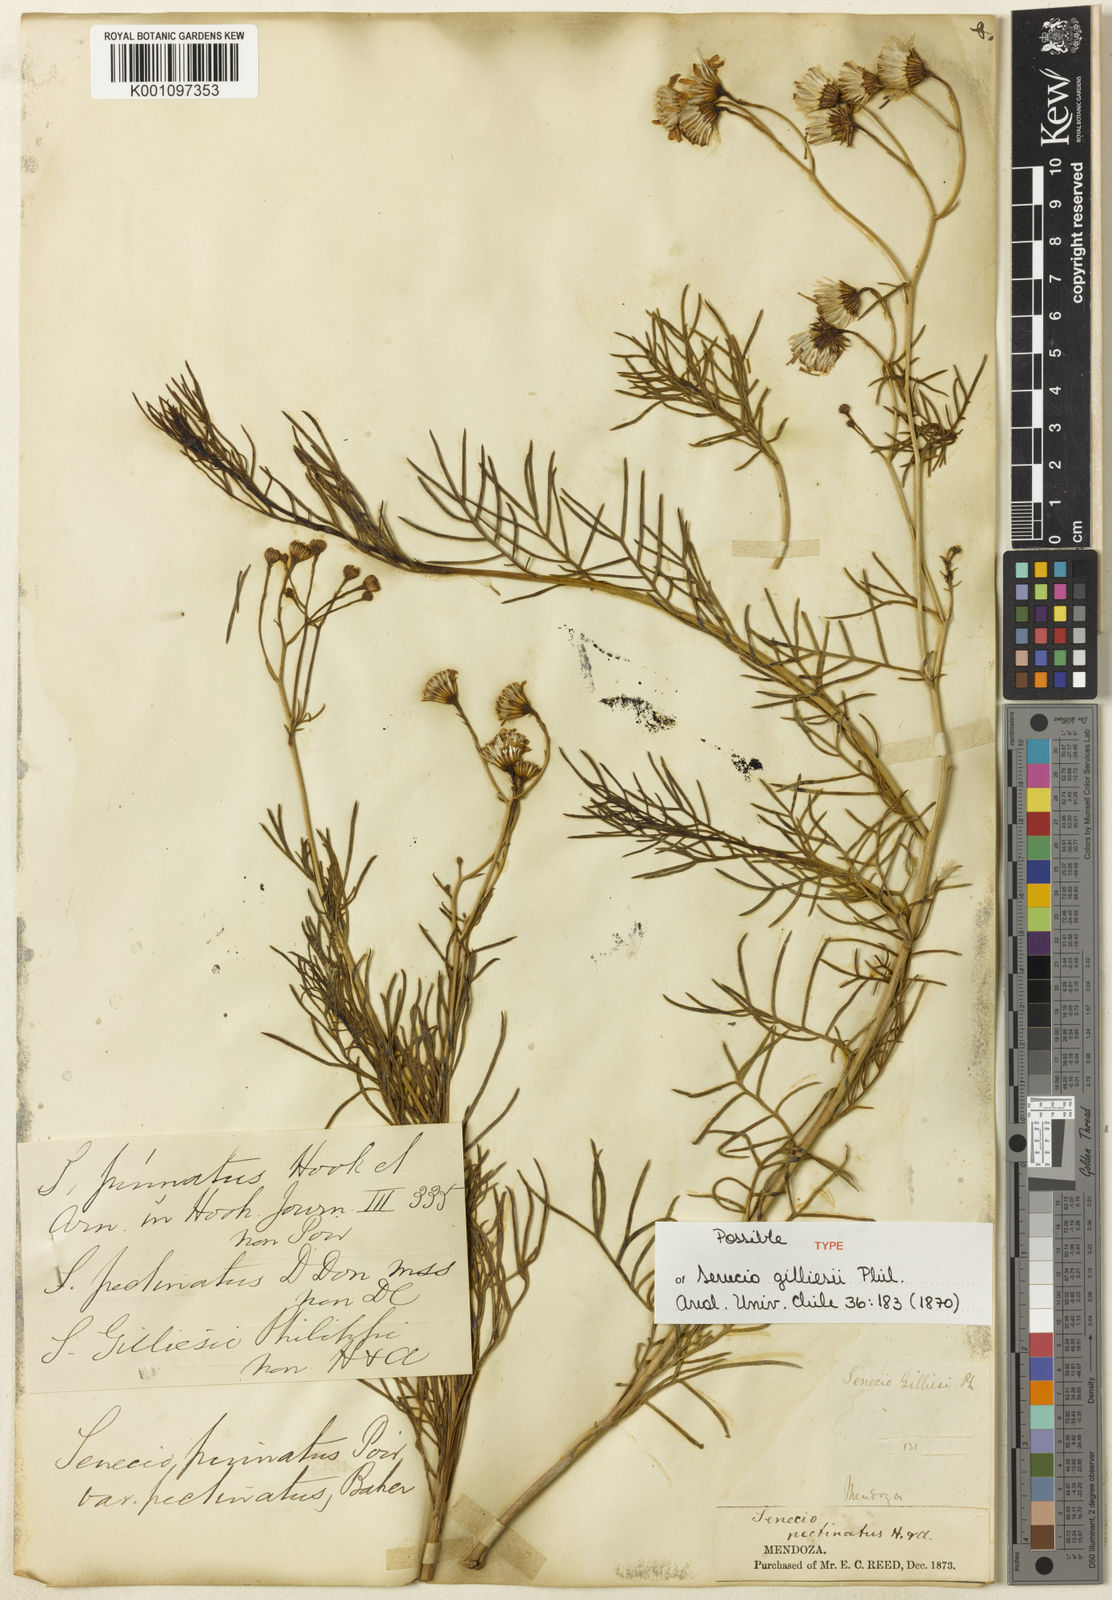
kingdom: Plantae
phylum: Tracheophyta
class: Magnoliopsida
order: Asterales
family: Asteraceae
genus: Senecio
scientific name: Senecio pinnatus
